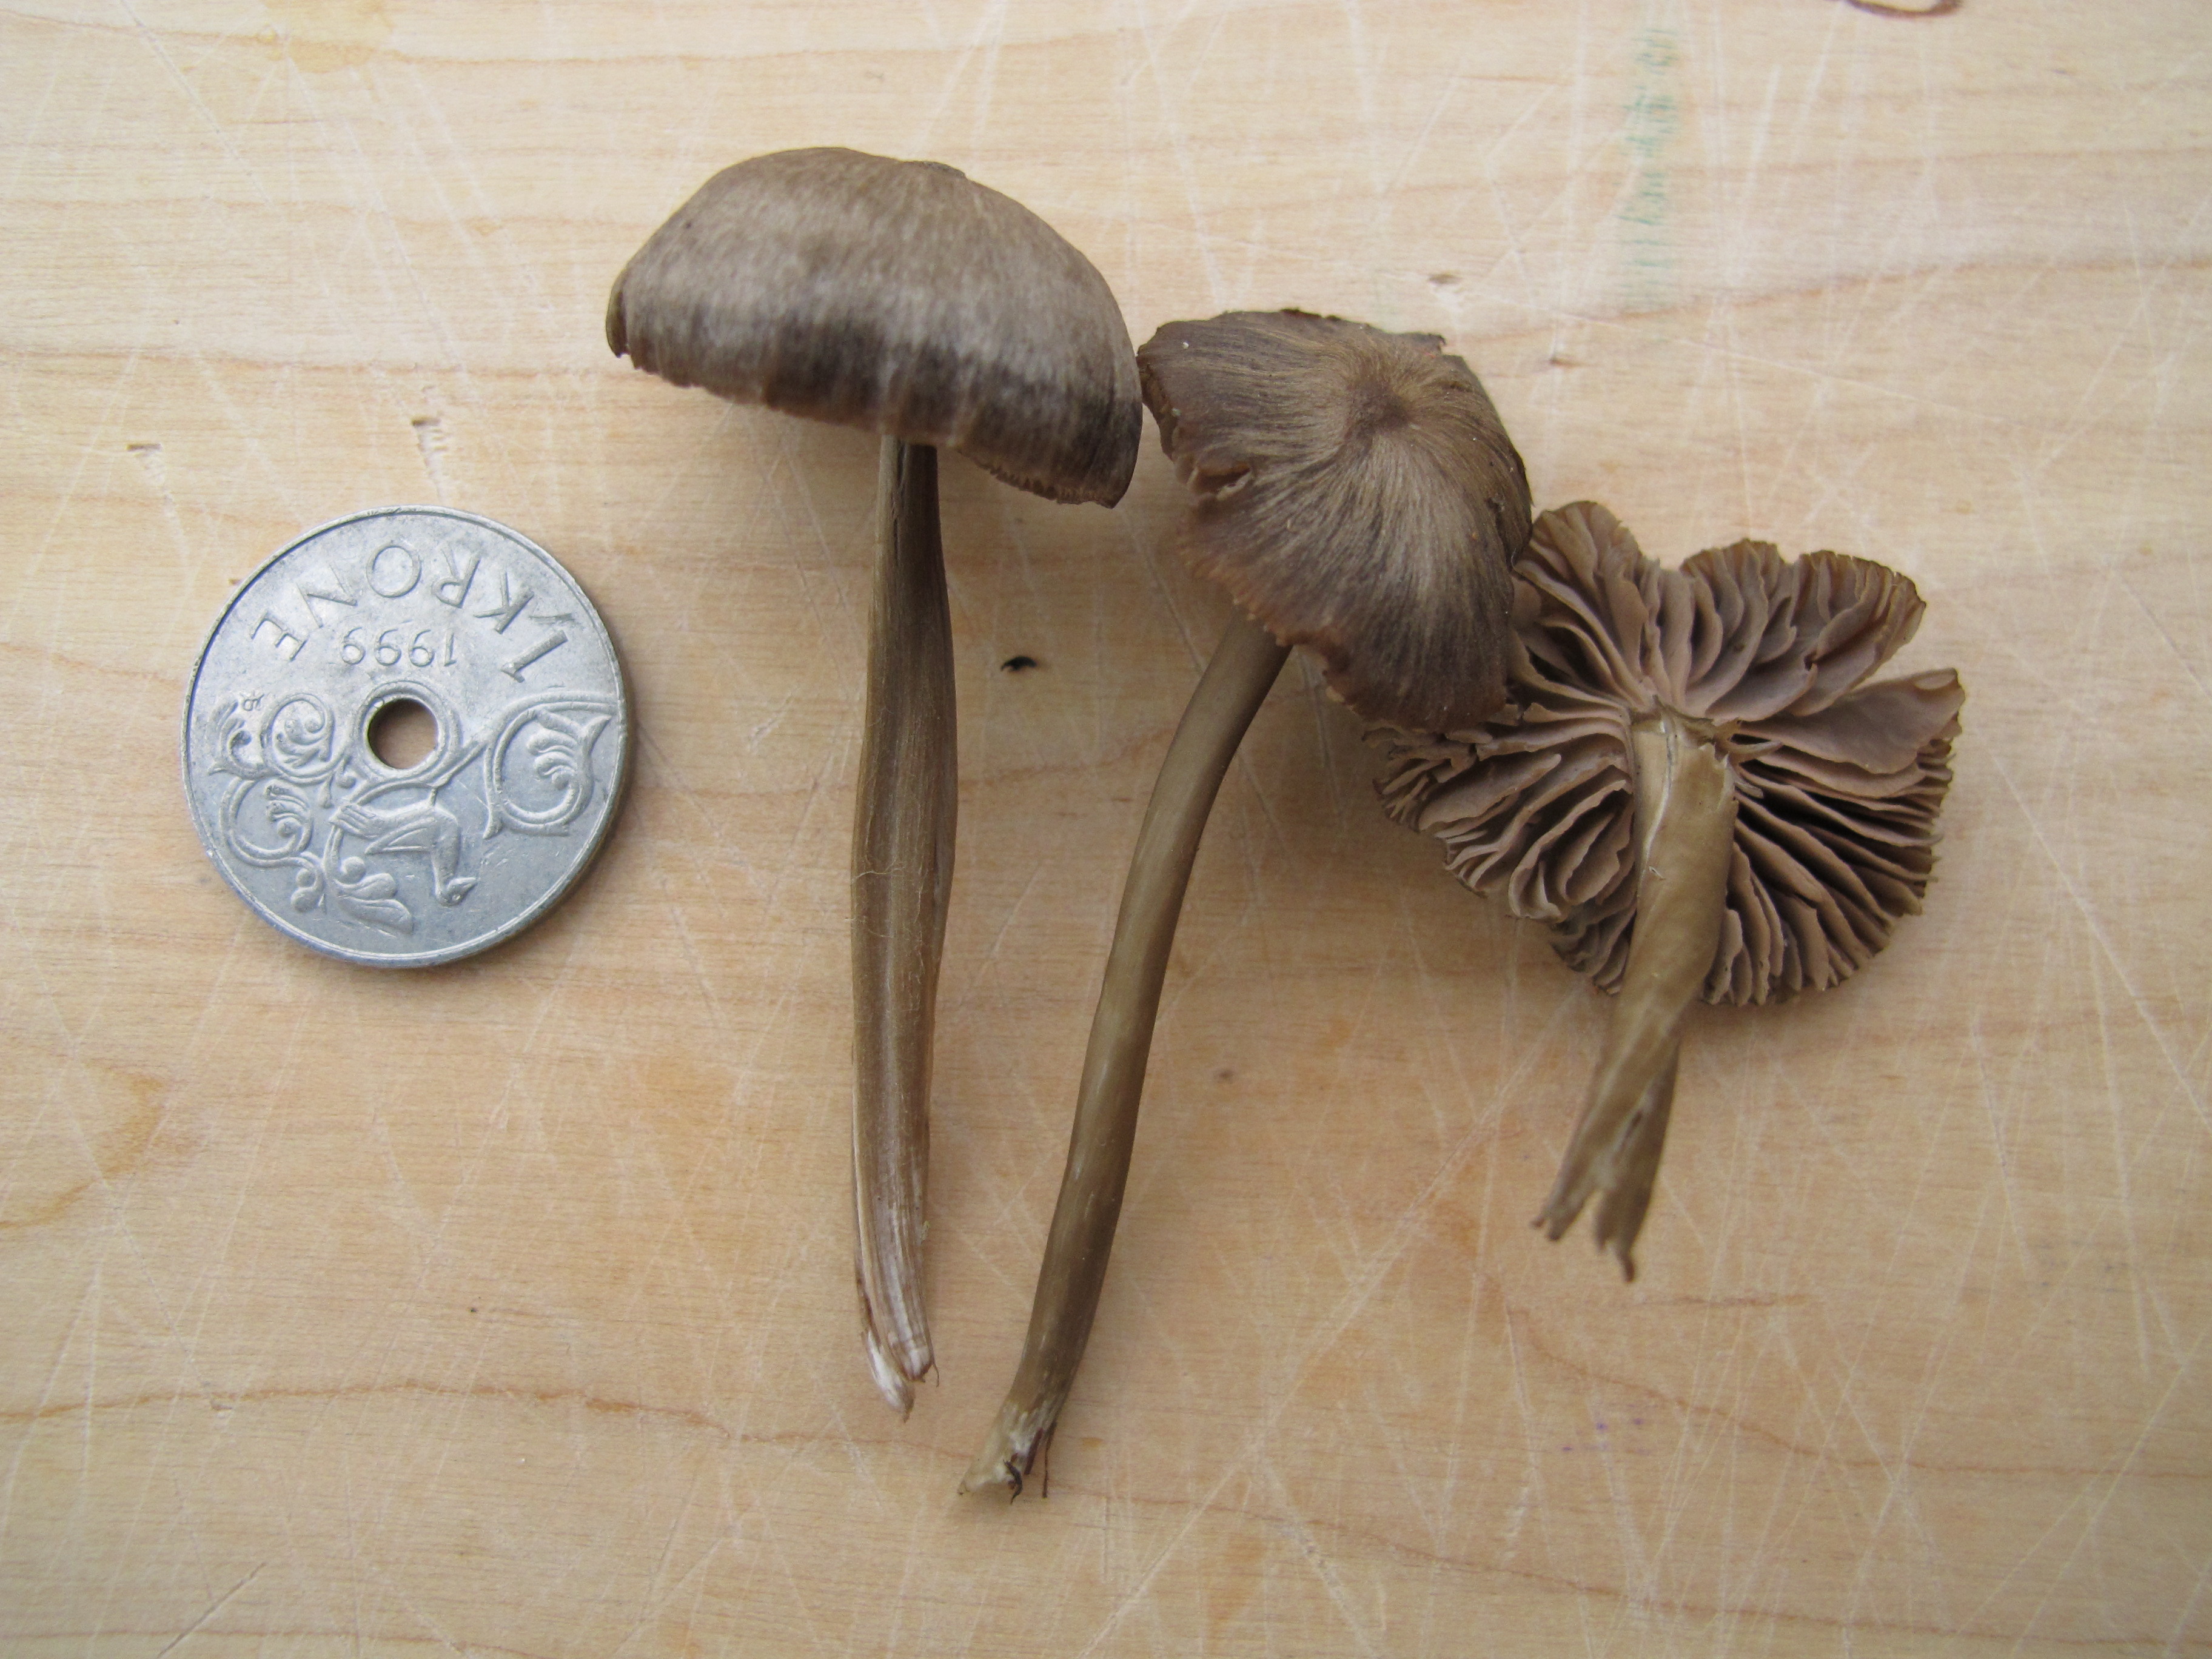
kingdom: Fungi
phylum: Basidiomycota
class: Agaricomycetes
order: Agaricales
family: Entolomataceae
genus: Entoloma
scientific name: Entoloma clandestinum
